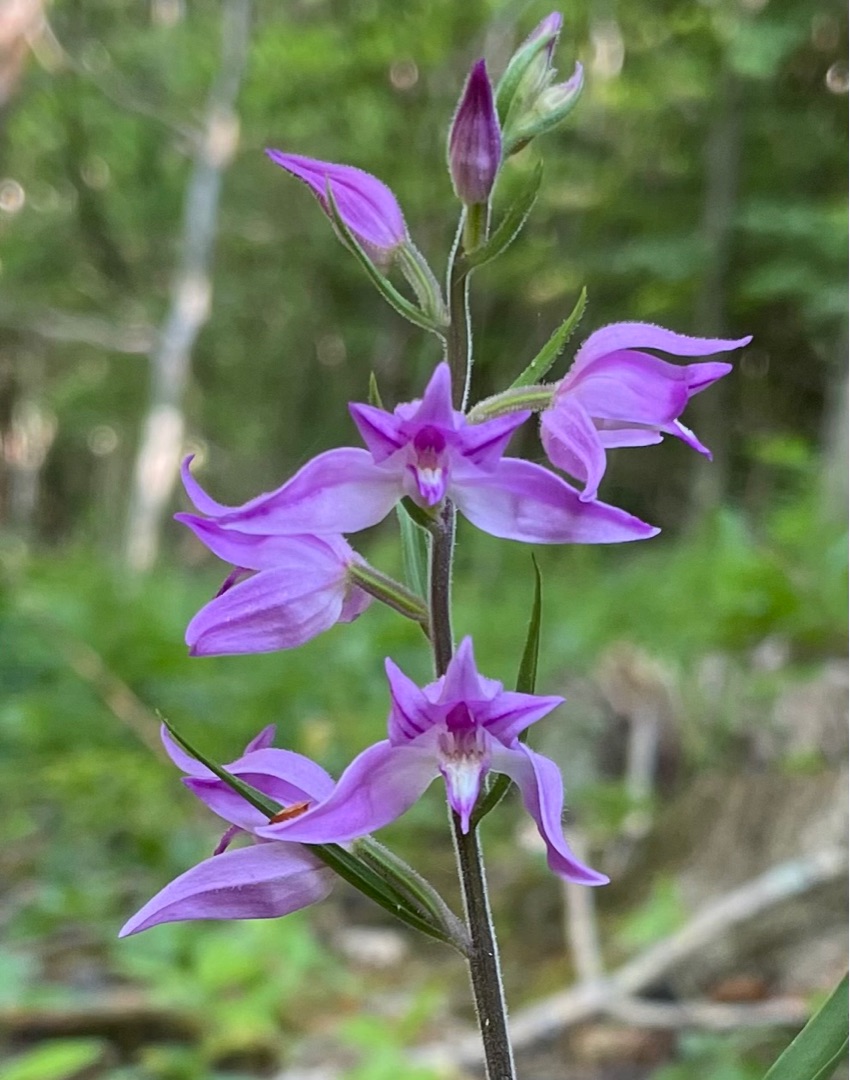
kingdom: Plantae
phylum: Tracheophyta
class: Liliopsida
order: Asparagales
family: Orchidaceae
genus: Cephalanthera
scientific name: Cephalanthera rubra
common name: Rød skovlilje
